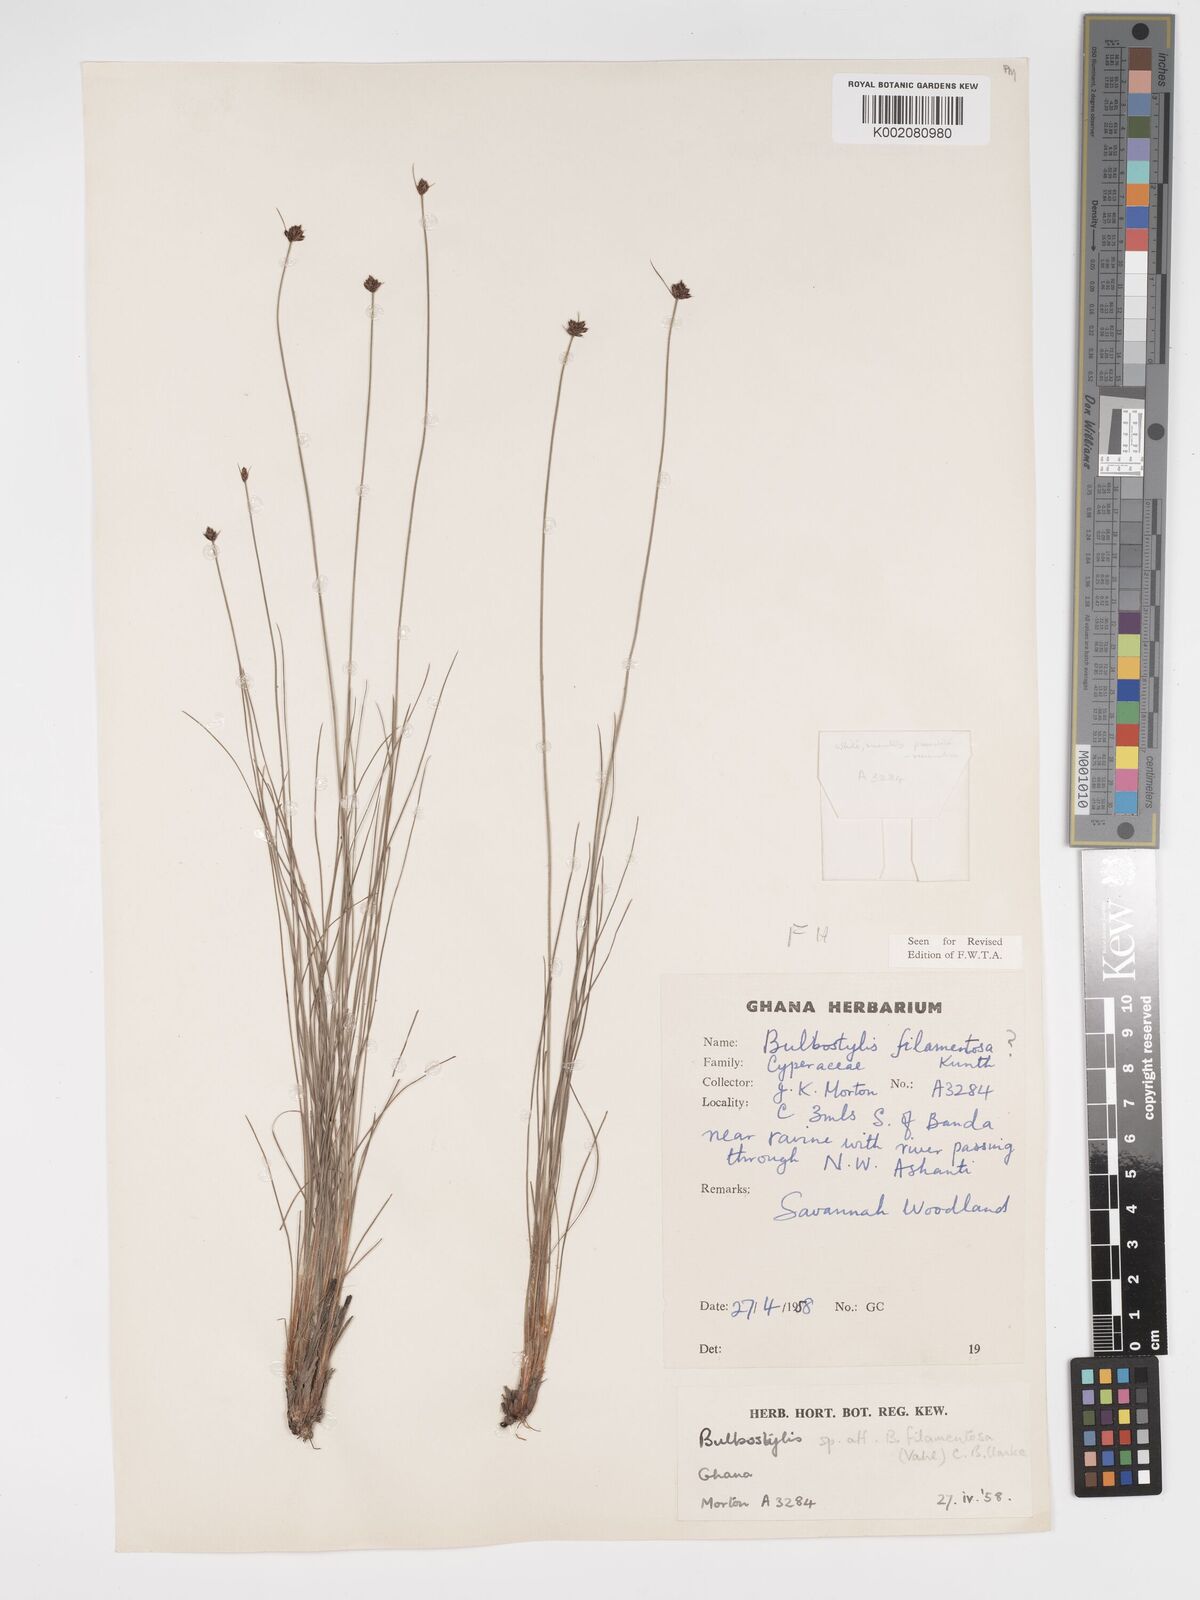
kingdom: Plantae
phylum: Tracheophyta
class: Liliopsida
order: Poales
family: Cyperaceae
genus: Bulbostylis
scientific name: Bulbostylis filamentosa
